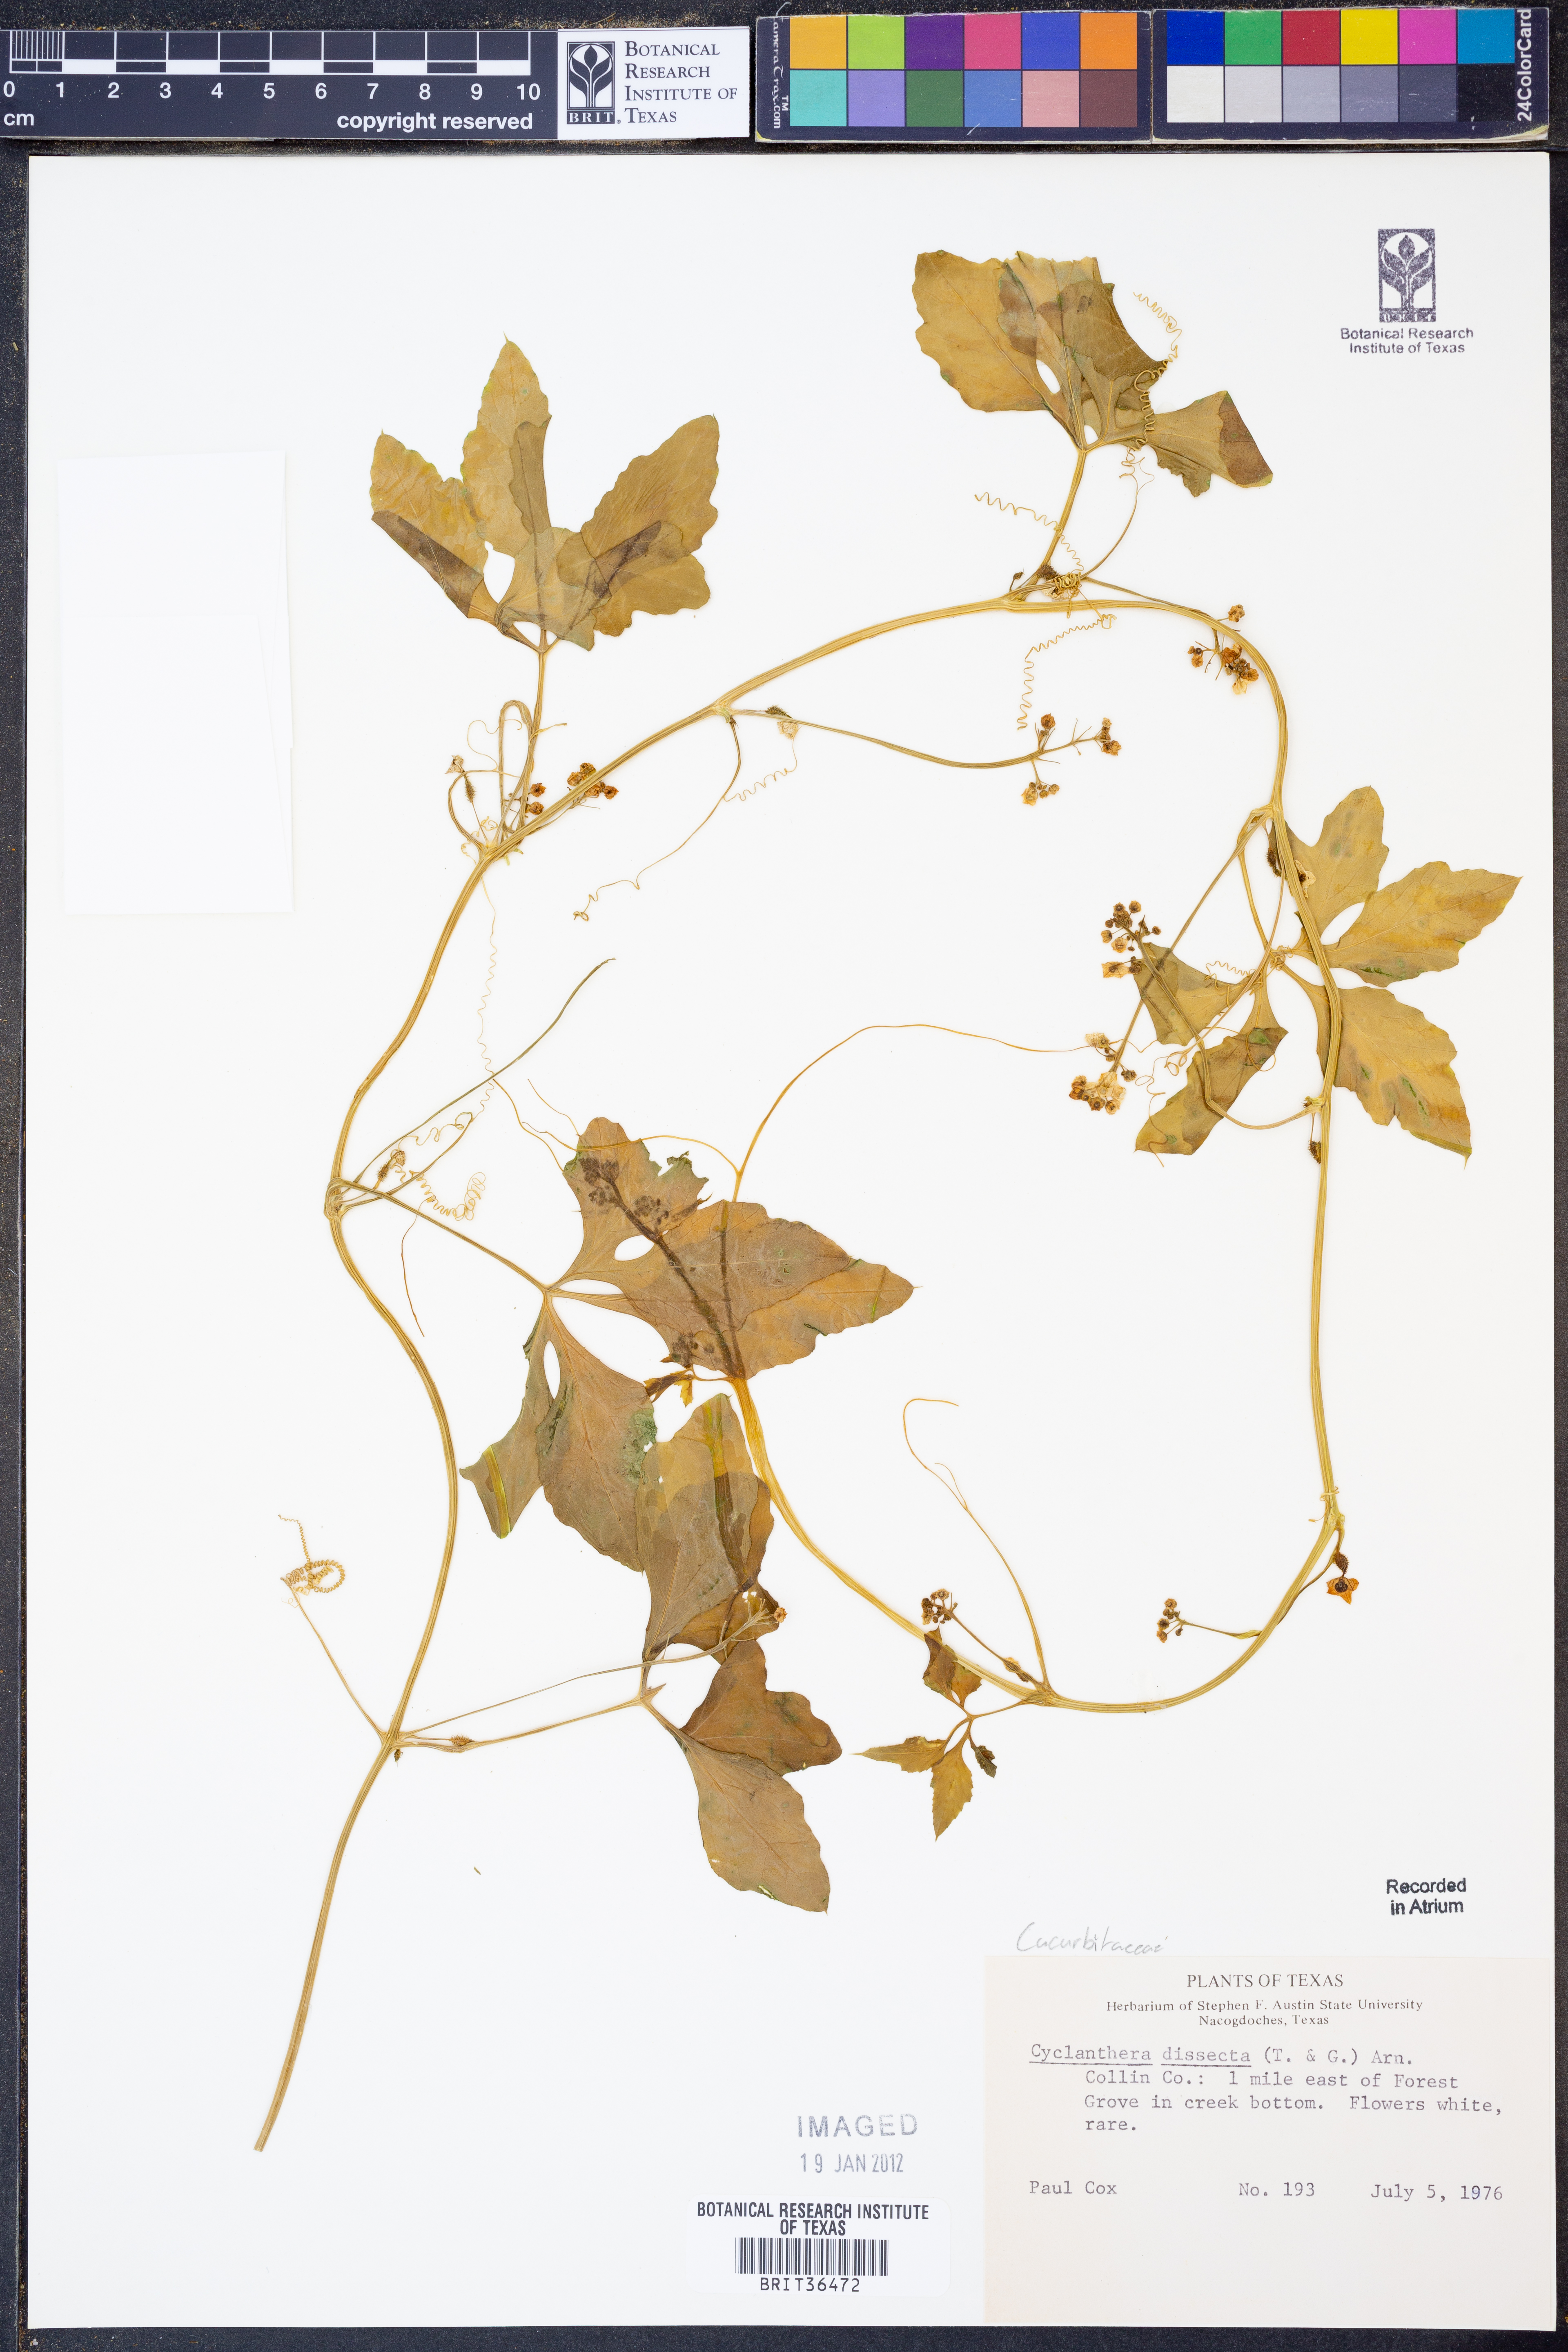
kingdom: Plantae
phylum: Tracheophyta
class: Magnoliopsida
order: Cucurbitales
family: Cucurbitaceae
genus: Cyclanthera
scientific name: Cyclanthera dissecta
